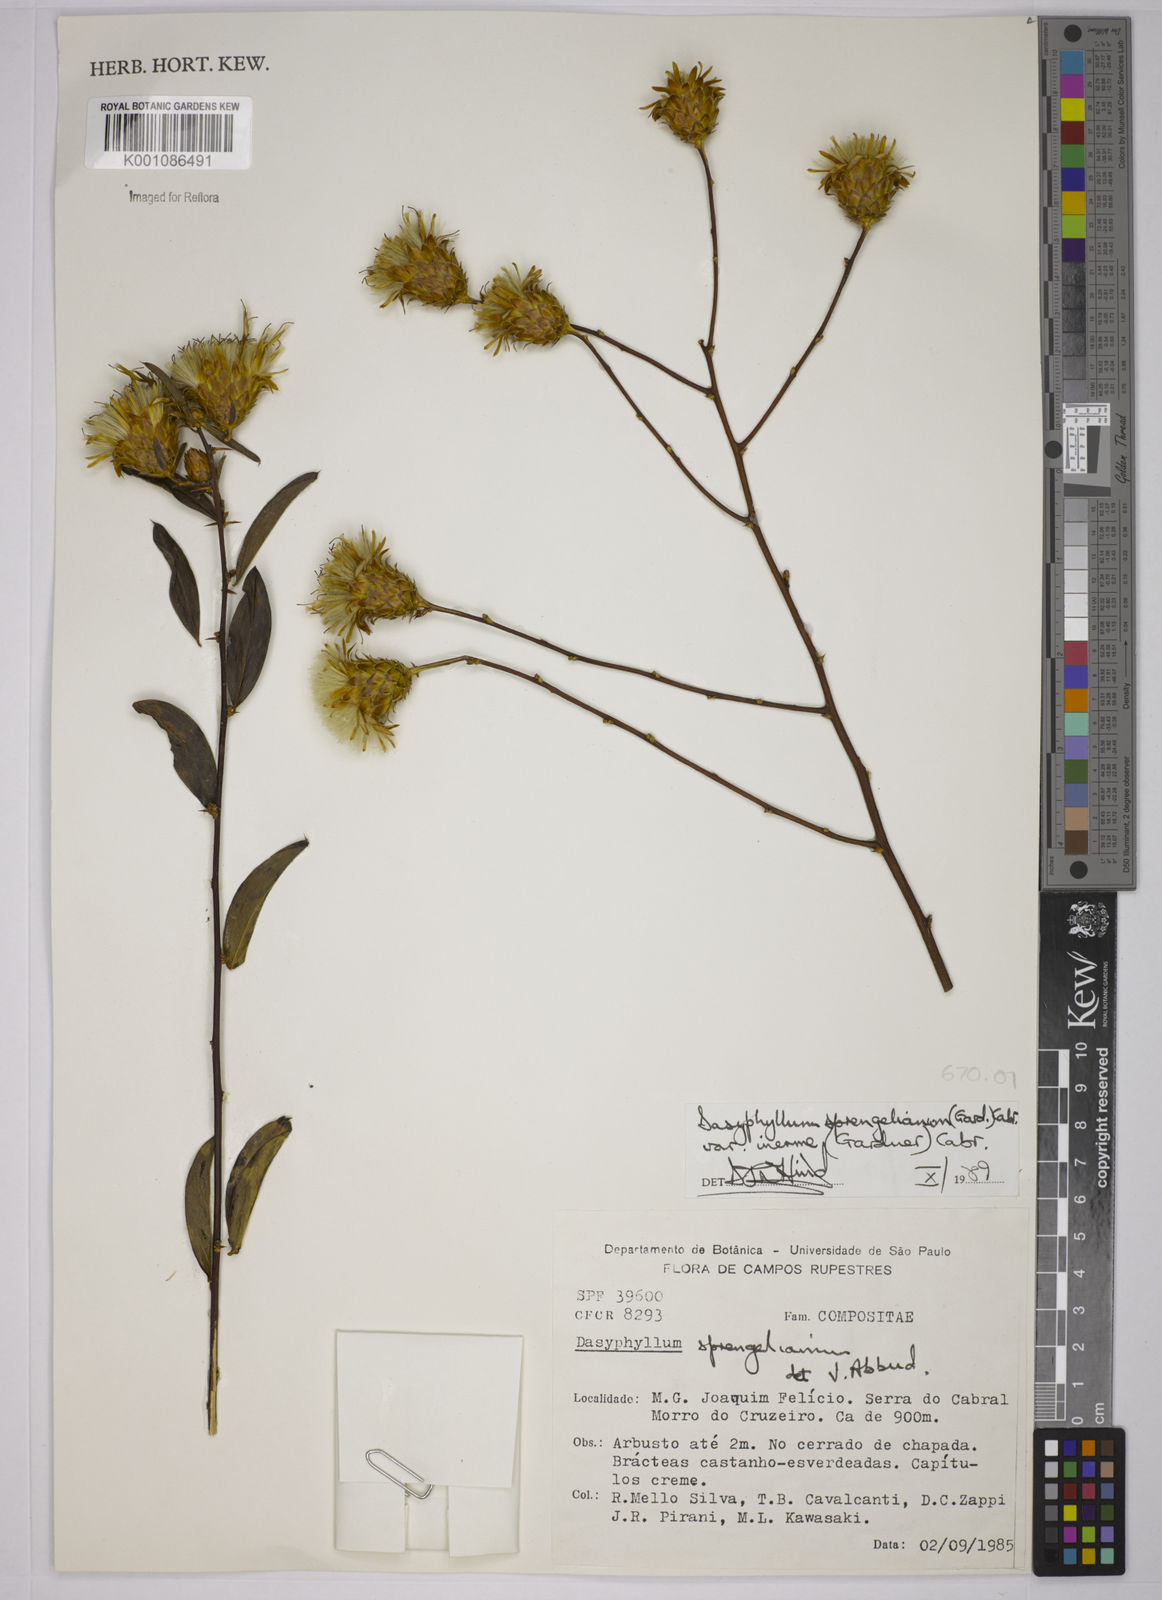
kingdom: Plantae
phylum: Tracheophyta
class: Magnoliopsida
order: Asterales
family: Asteraceae
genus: Dasyphyllum
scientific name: Dasyphyllum sprengelianum
